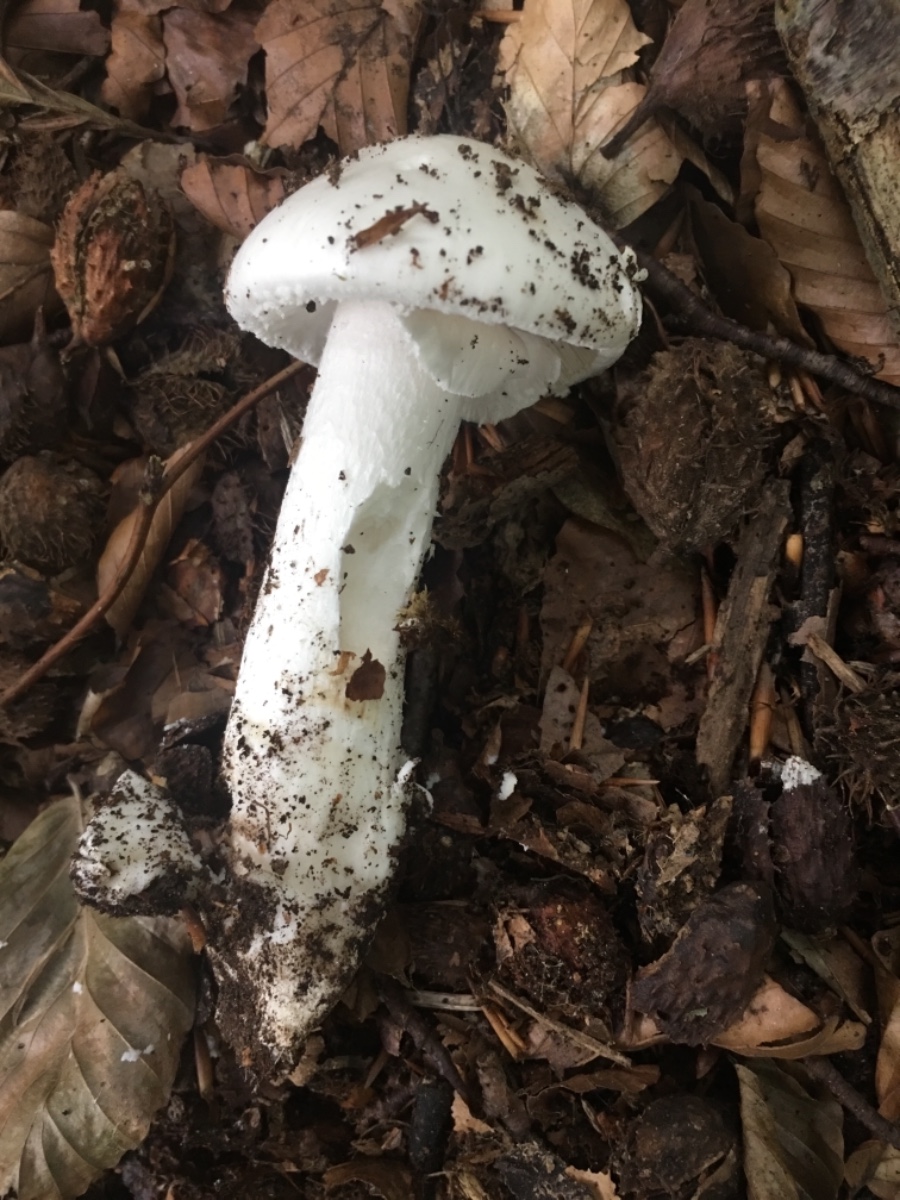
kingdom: Fungi
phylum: Basidiomycota
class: Agaricomycetes
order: Agaricales
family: Amanitaceae
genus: Amanita
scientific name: Amanita virosa
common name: snehvid fluesvamp
